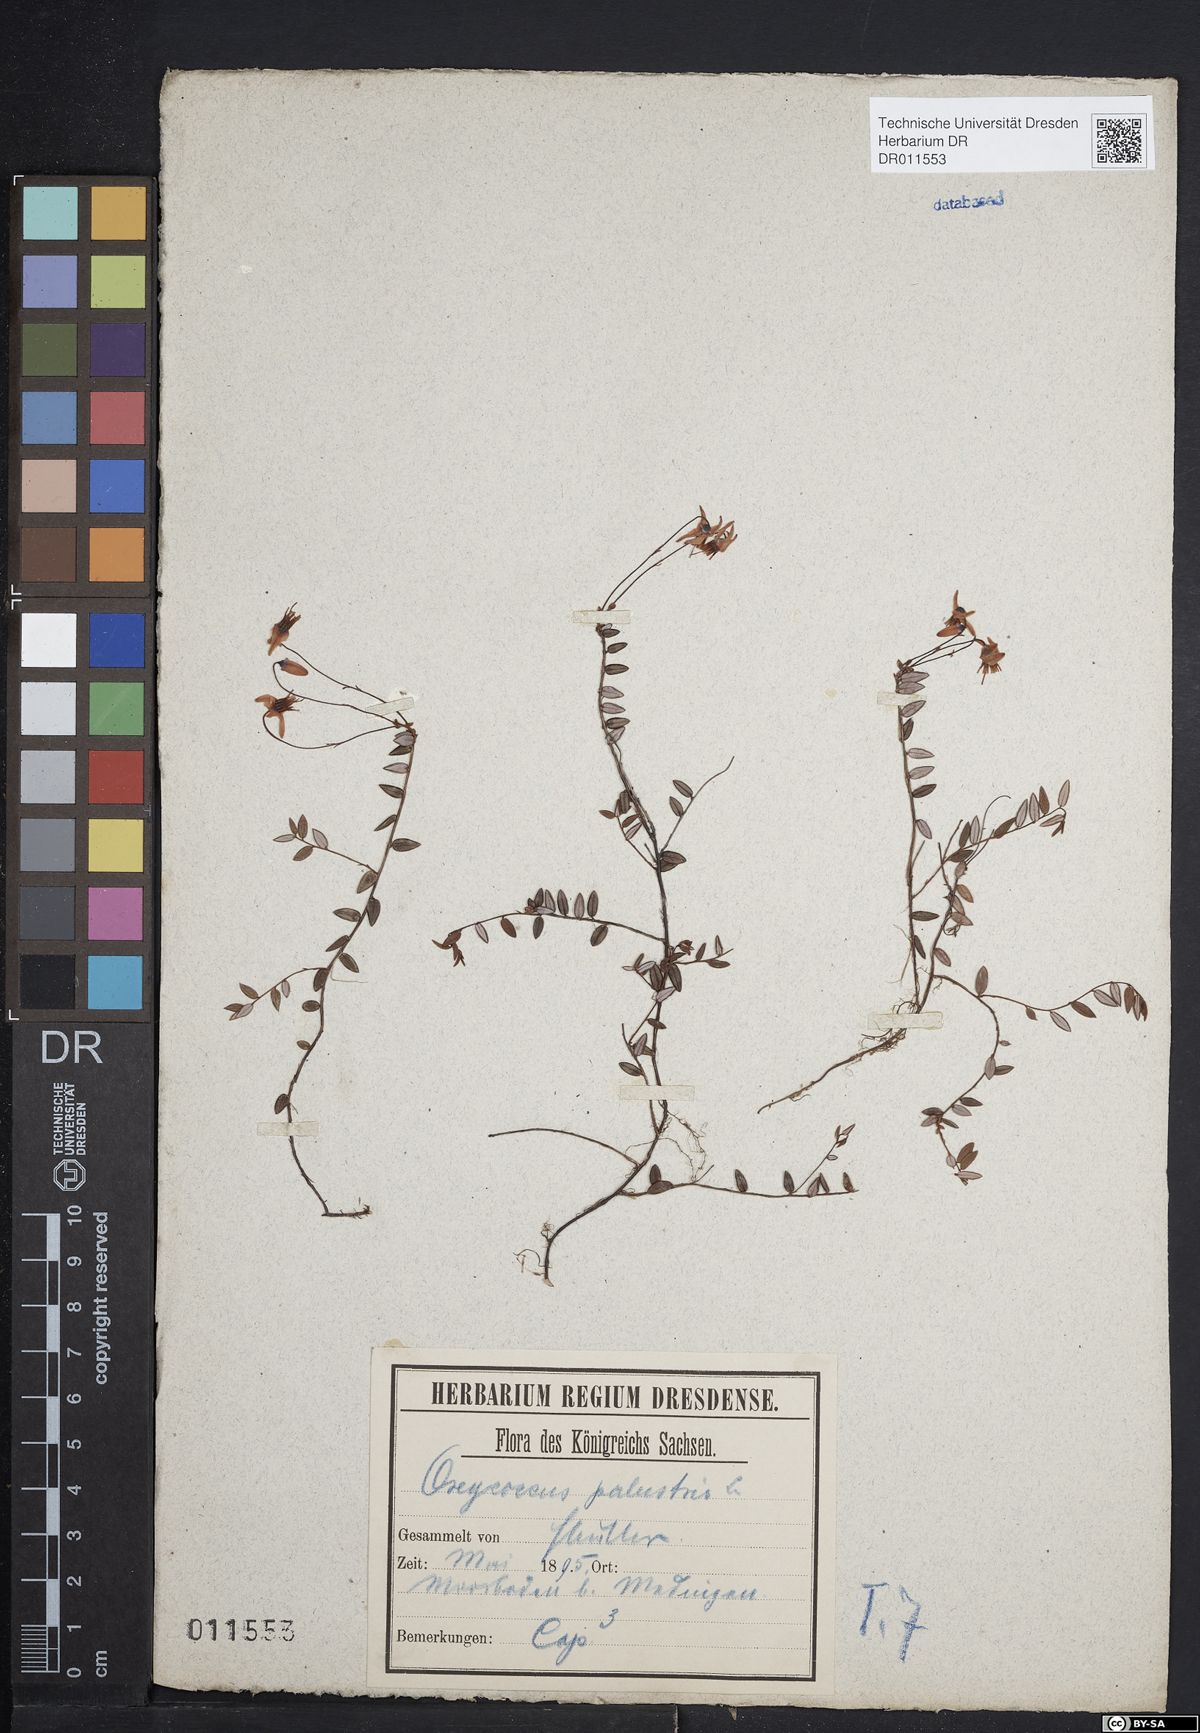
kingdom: Plantae
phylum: Tracheophyta
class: Magnoliopsida
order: Ericales
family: Ericaceae
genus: Vaccinium
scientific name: Vaccinium oxycoccos
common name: Cranberry
